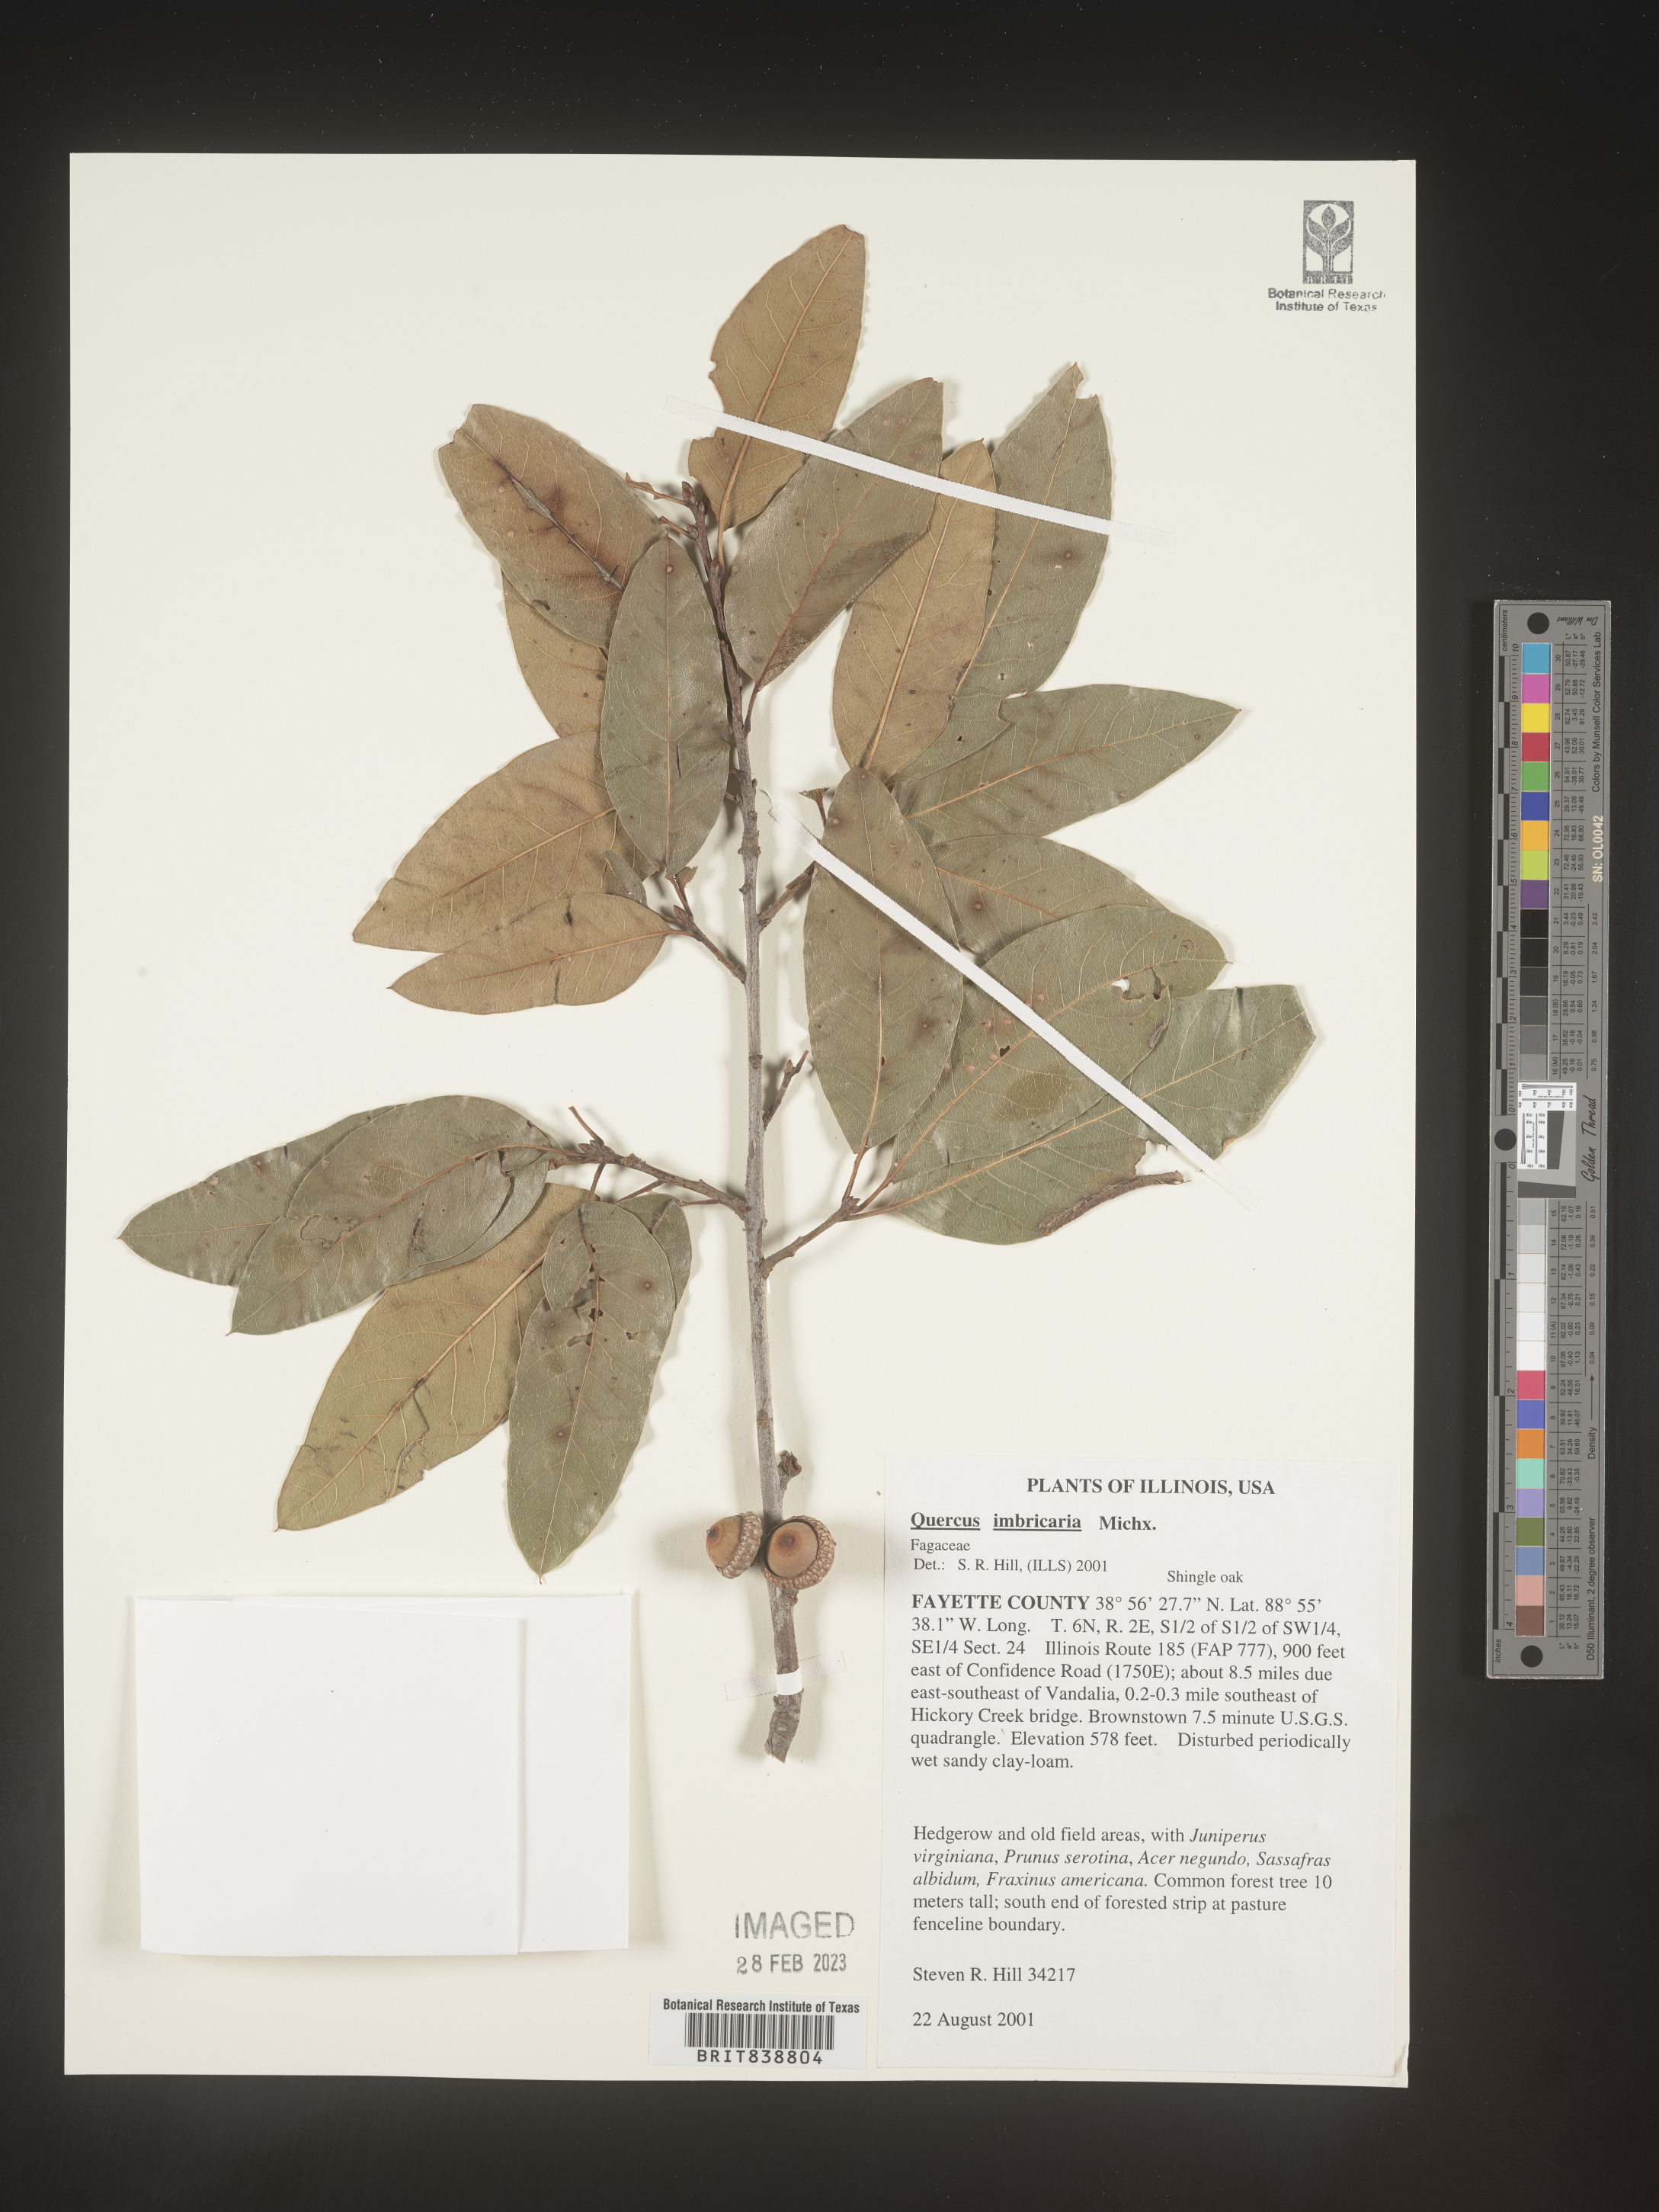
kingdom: Plantae
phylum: Tracheophyta
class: Magnoliopsida
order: Fagales
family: Fagaceae
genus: Quercus
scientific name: Quercus imbricaria
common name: Shingle oak
